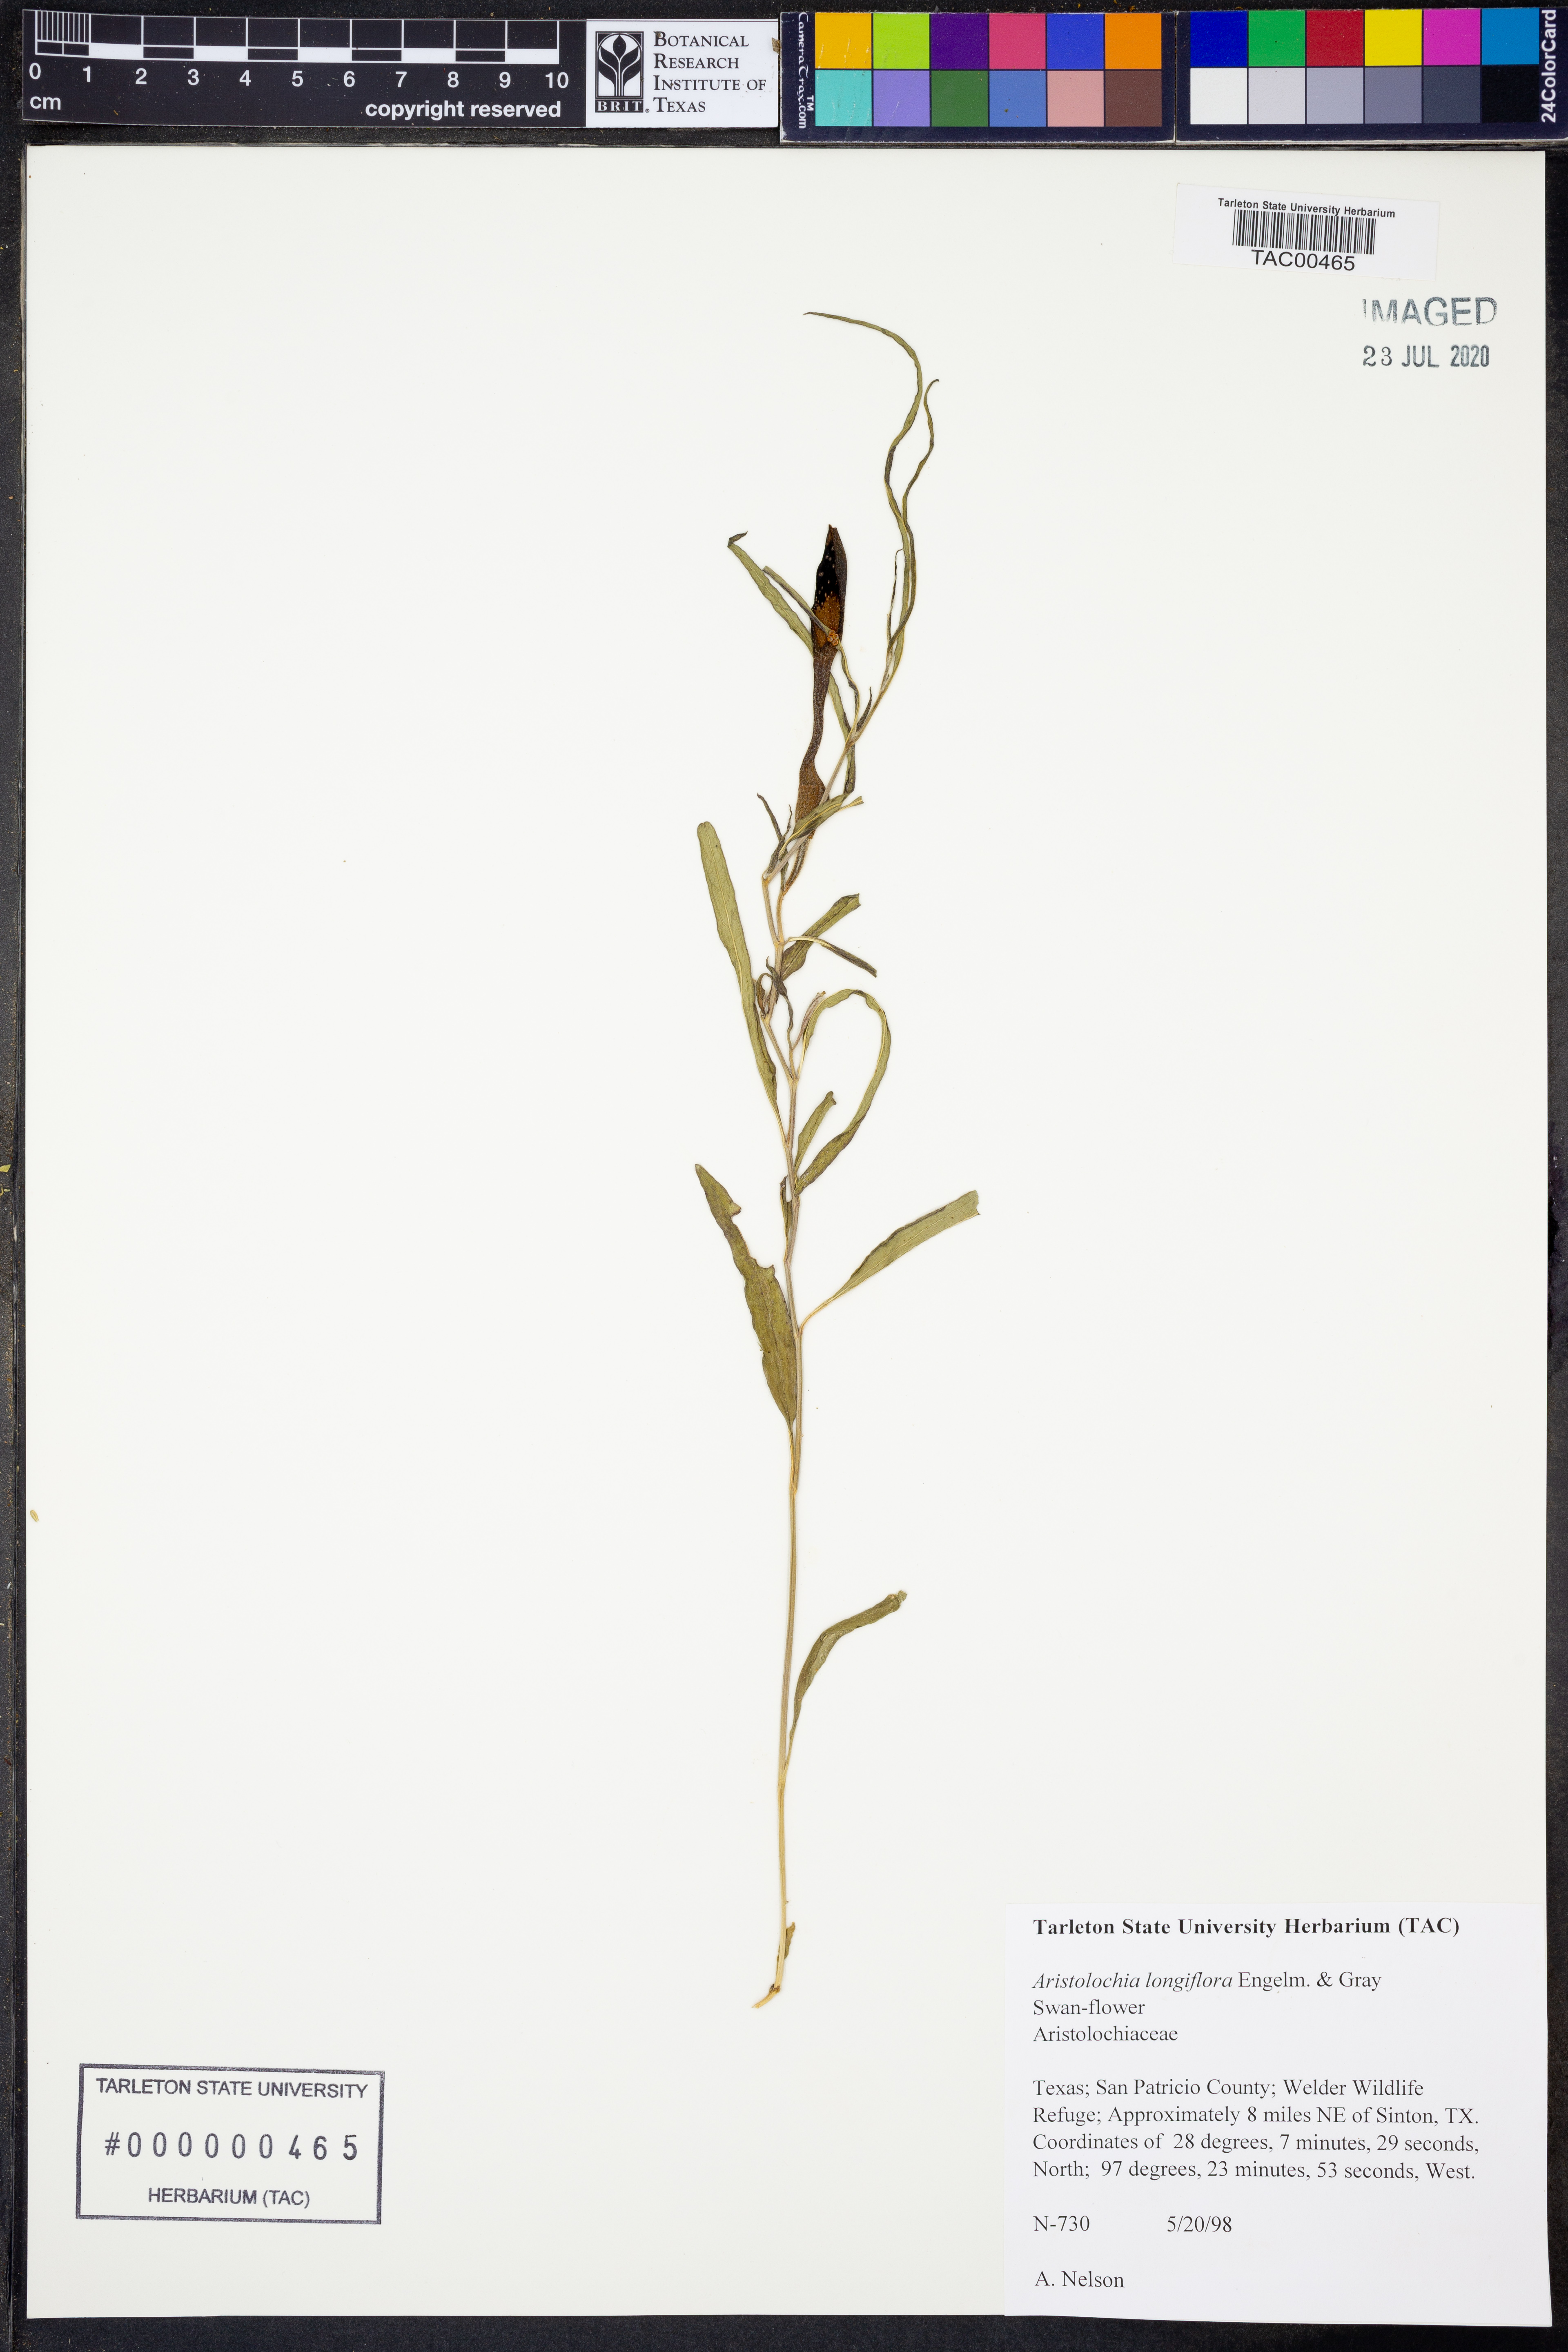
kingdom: Plantae
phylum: Tracheophyta
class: Magnoliopsida
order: Piperales
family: Aristolochiaceae
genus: Aristolochia
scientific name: Aristolochia erecta
